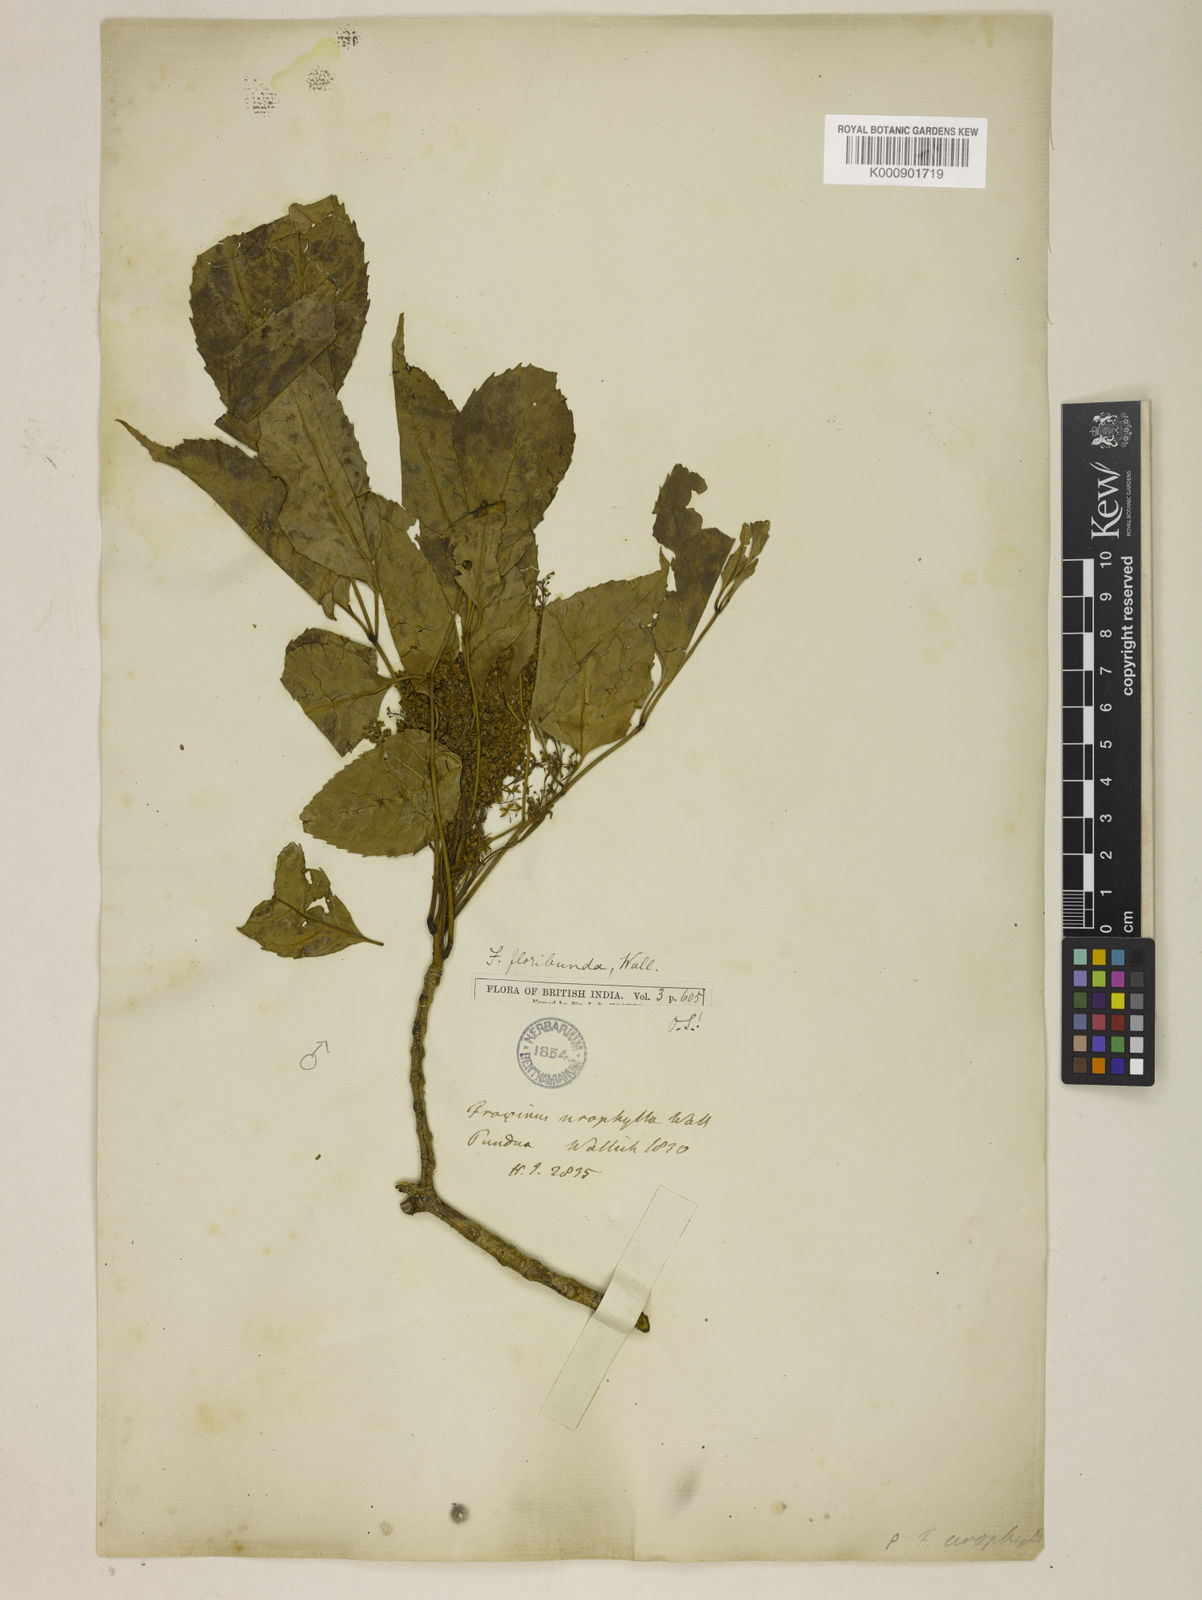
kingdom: Plantae
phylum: Tracheophyta
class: Magnoliopsida
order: Lamiales
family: Oleaceae
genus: Fraxinus
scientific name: Fraxinus floribunda
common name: East indian ash
